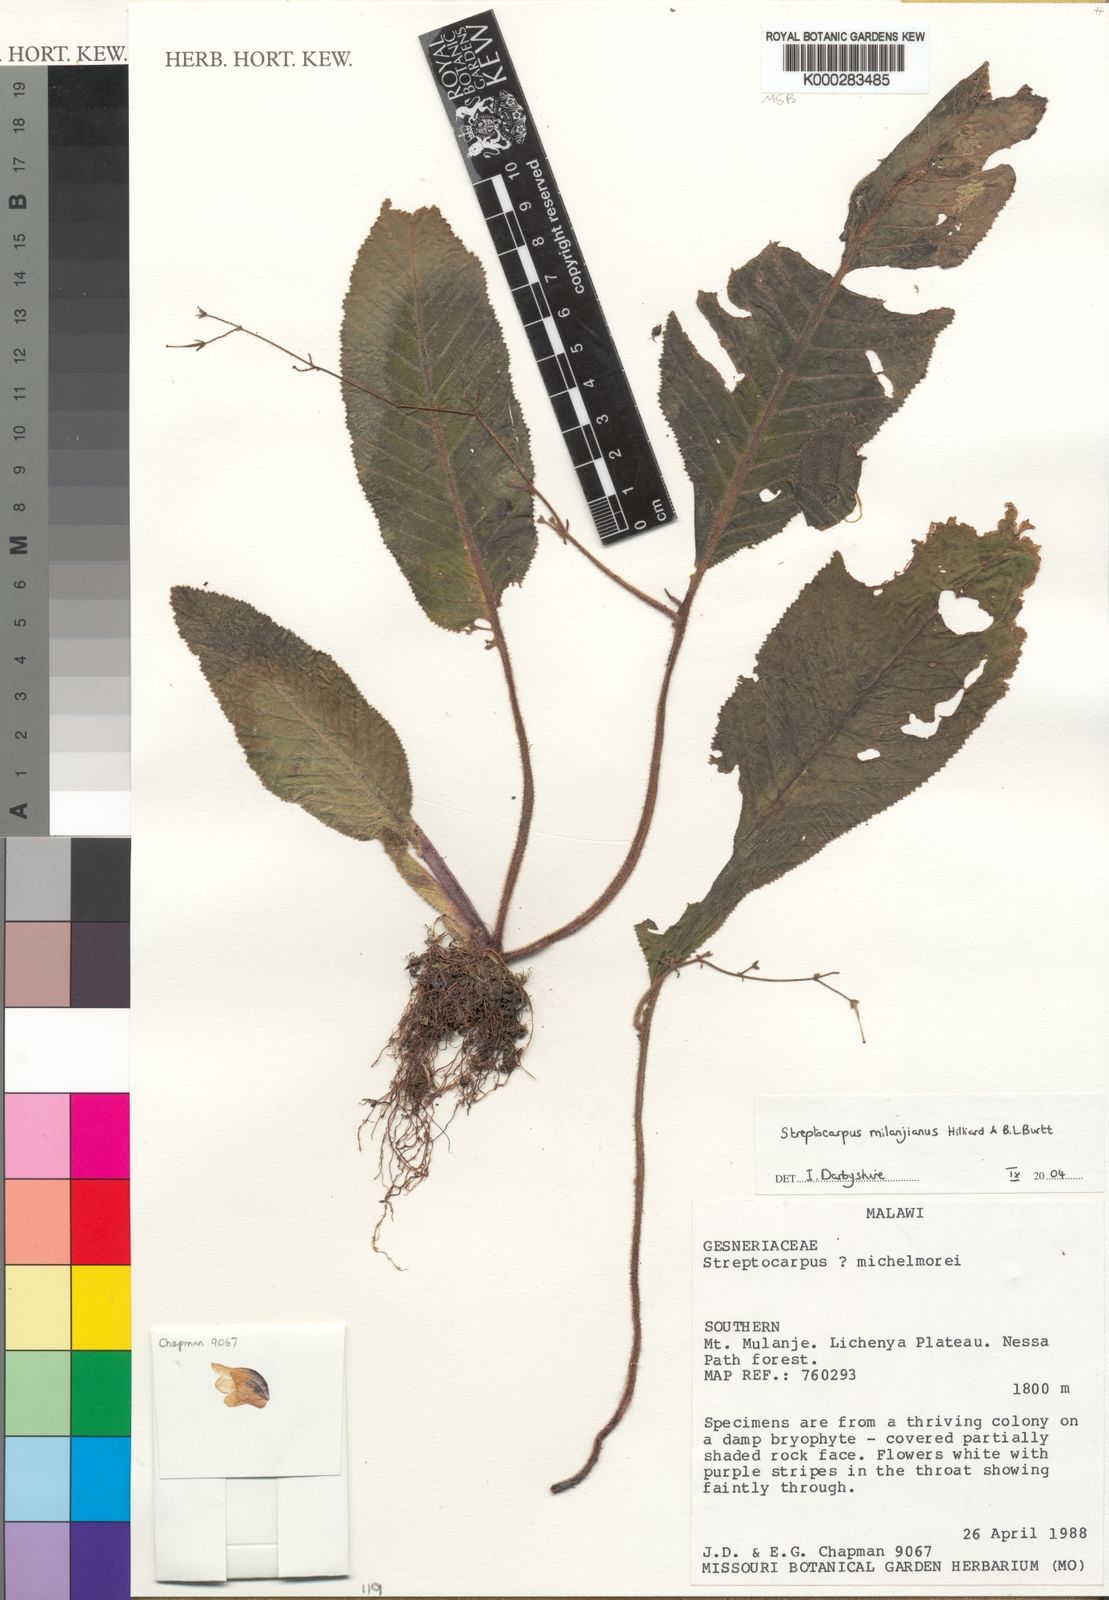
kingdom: Plantae
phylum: Tracheophyta
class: Magnoliopsida
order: Lamiales
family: Gesneriaceae
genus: Streptocarpus
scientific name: Streptocarpus milanjianus
